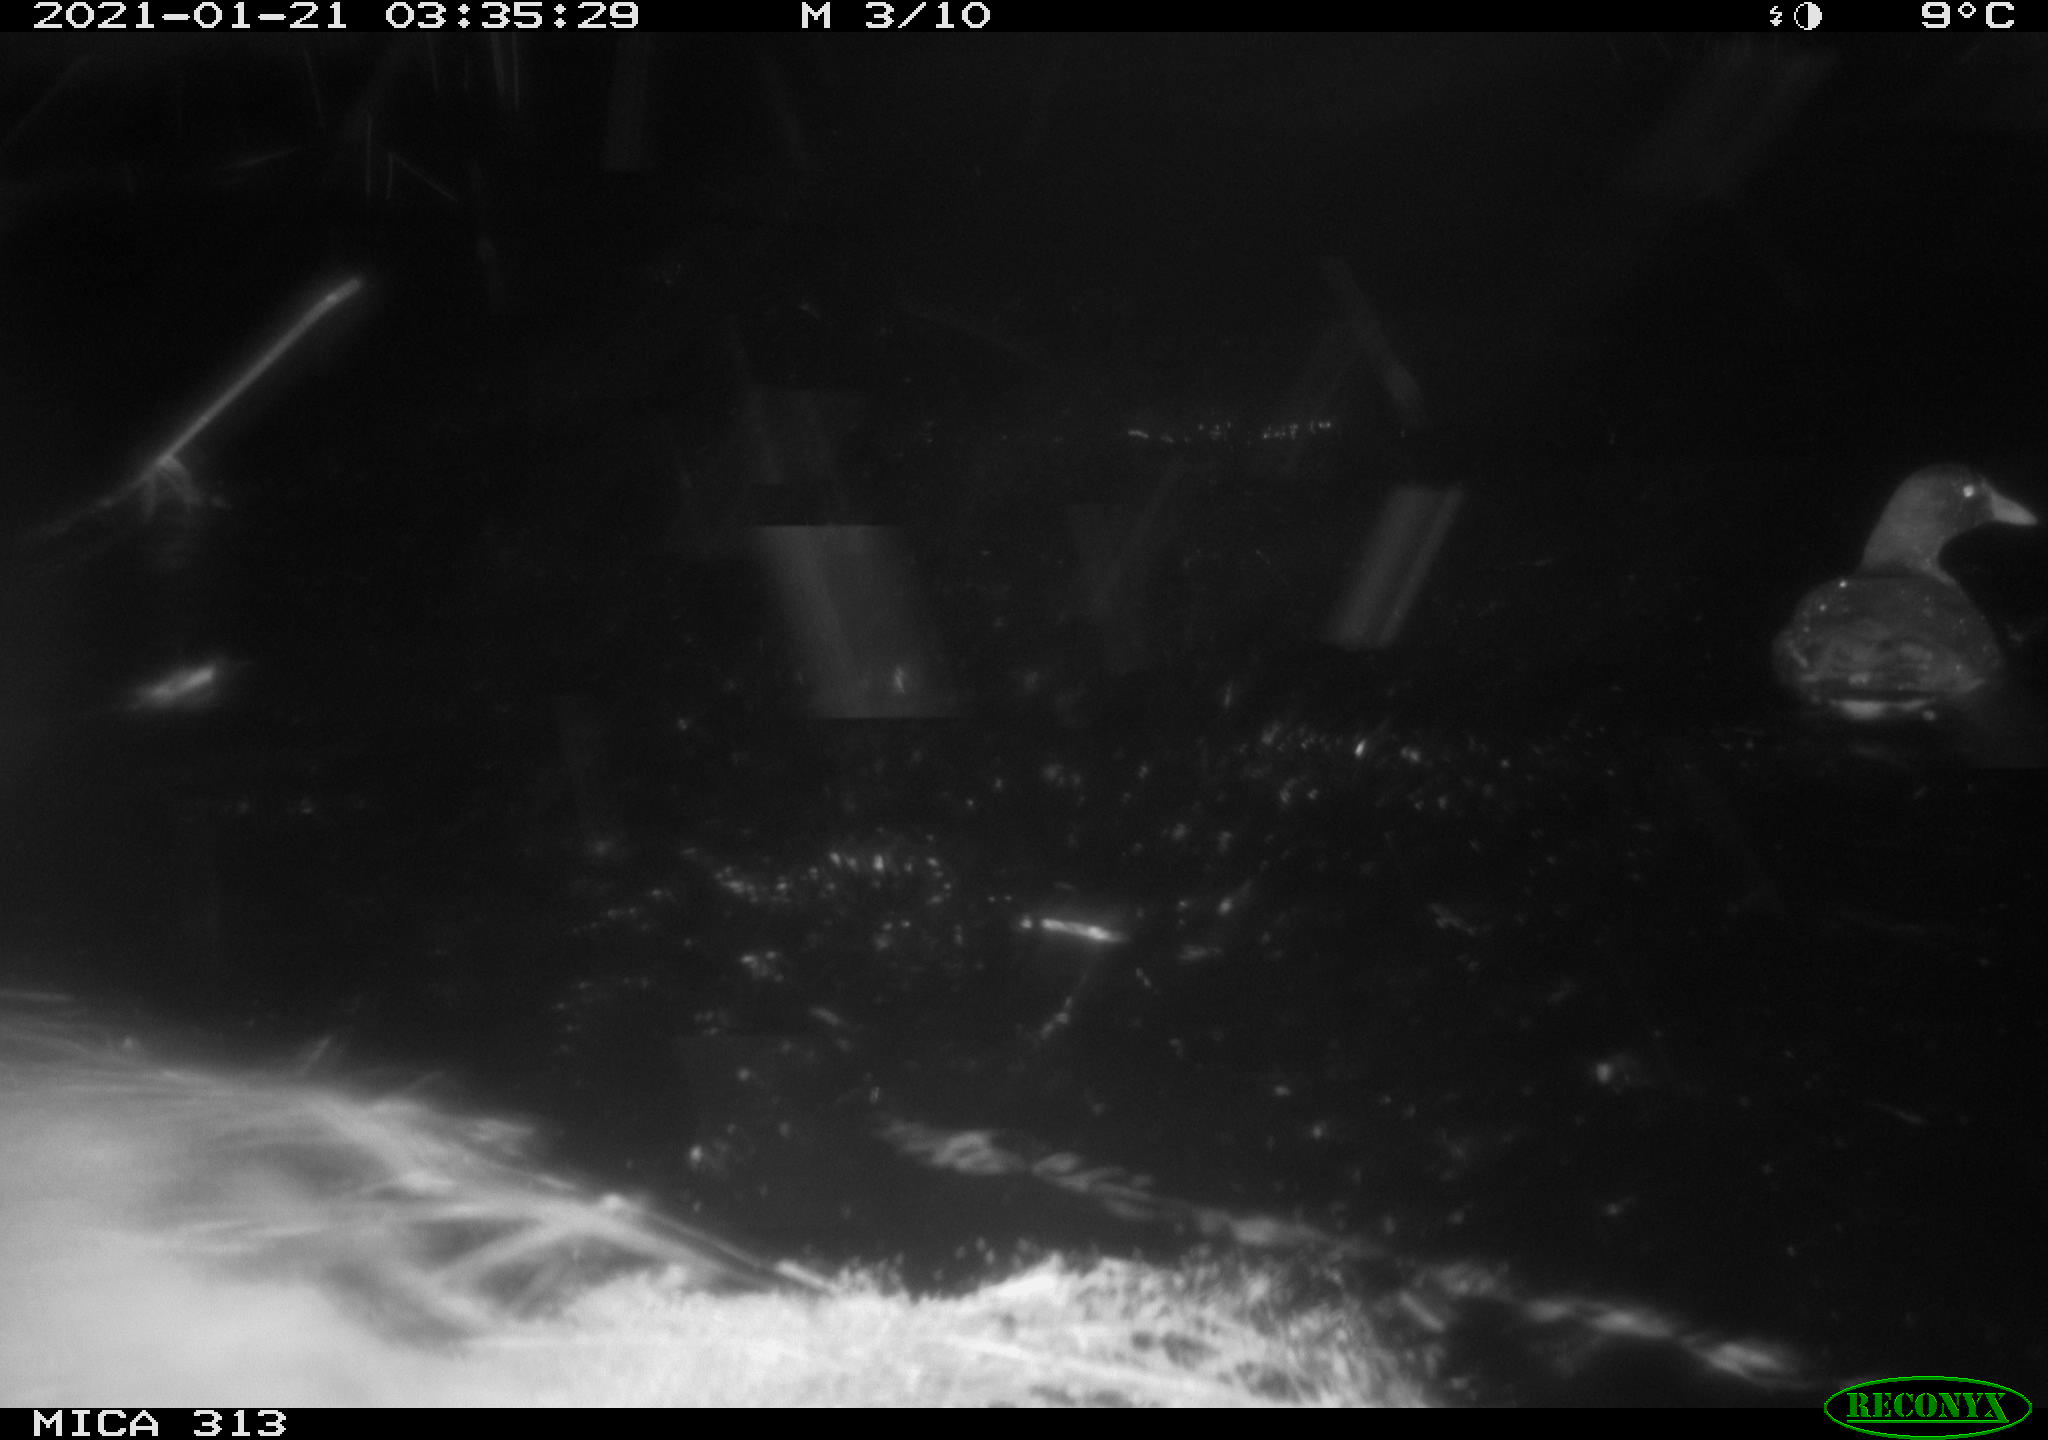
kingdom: Animalia
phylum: Chordata
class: Aves
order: Anseriformes
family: Anatidae
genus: Mareca
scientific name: Mareca strepera
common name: Gadwall
